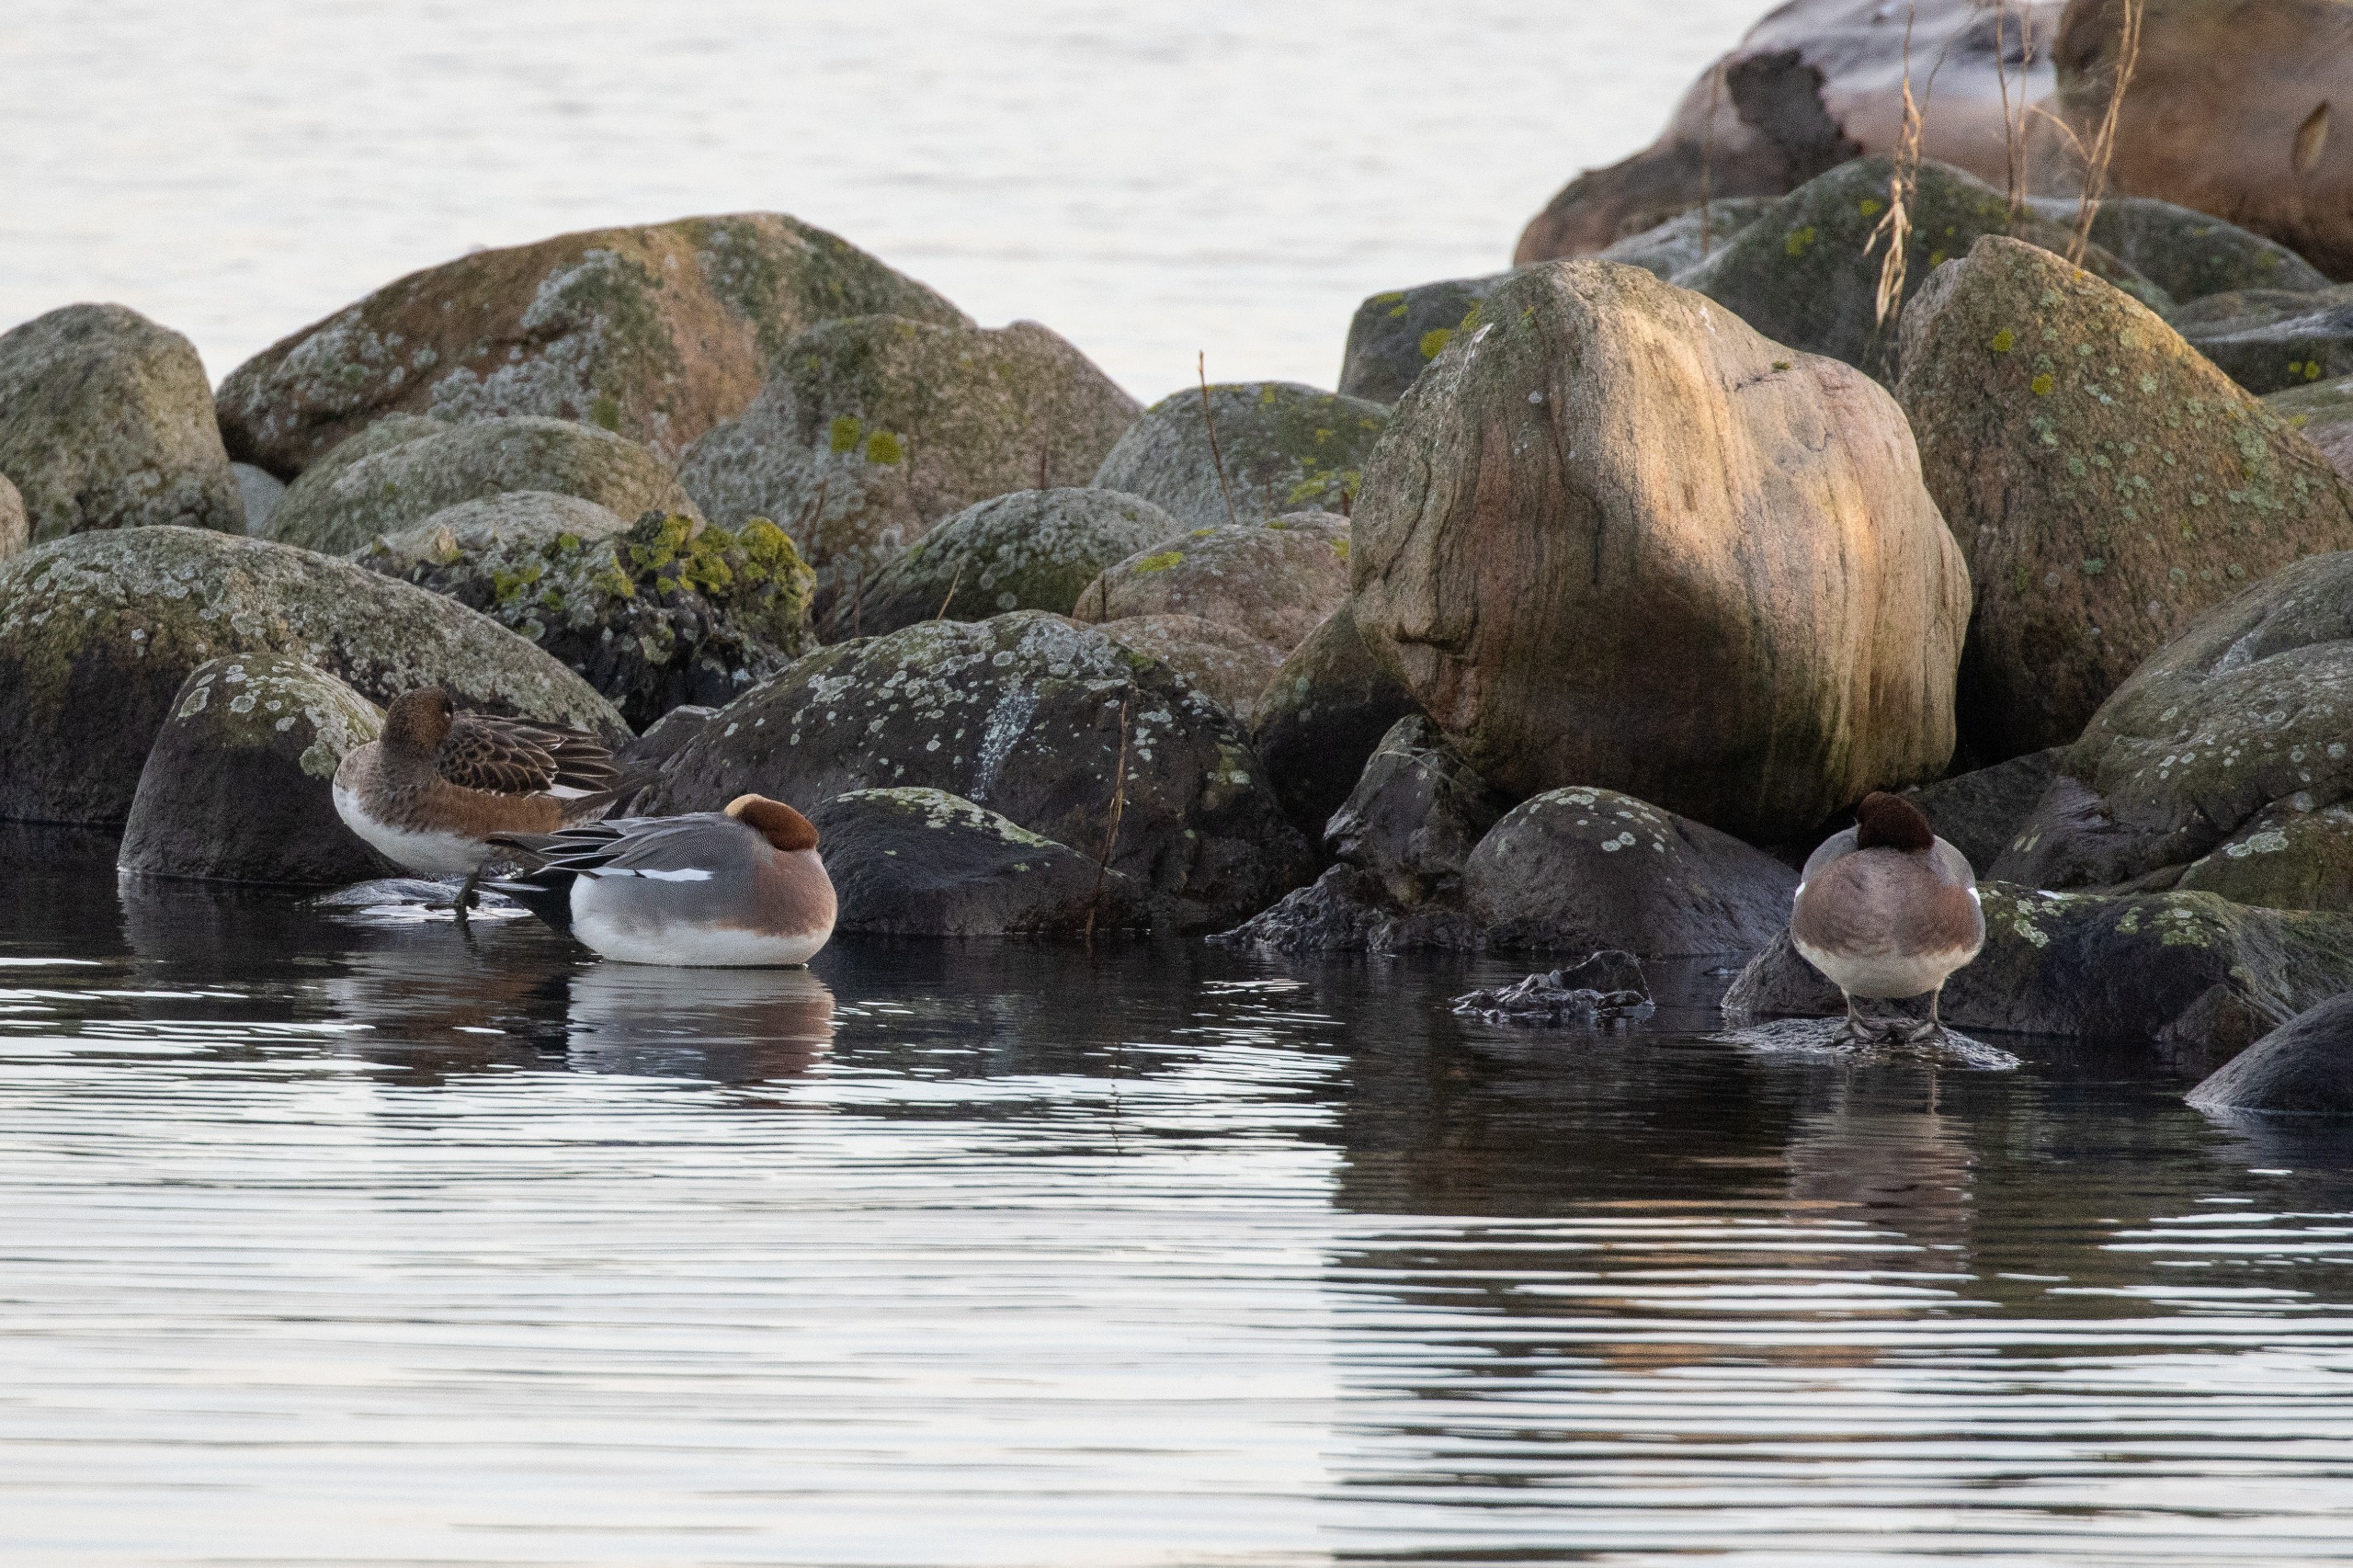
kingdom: Animalia
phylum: Chordata
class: Aves
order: Gruiformes
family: Rallidae
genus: Gallinula
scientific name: Gallinula chloropus
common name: Grønbenet rørhøne
